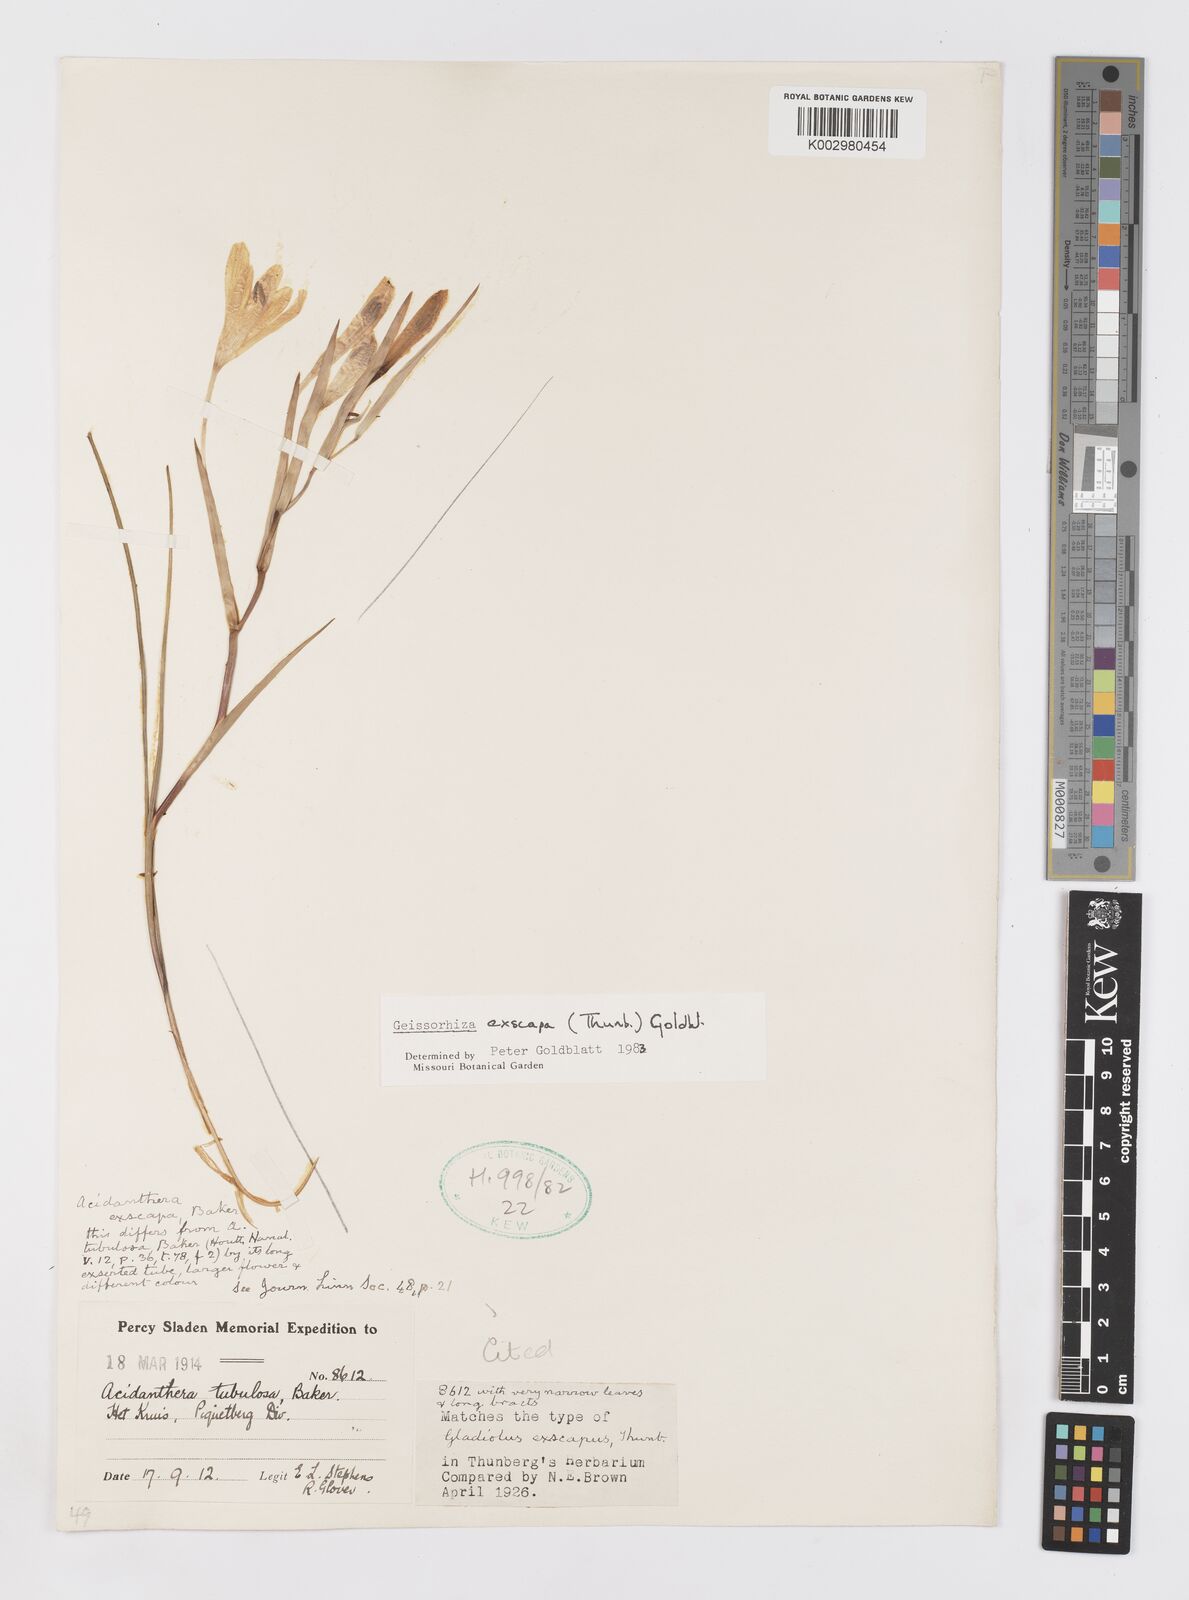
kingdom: Plantae
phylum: Tracheophyta
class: Liliopsida
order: Asparagales
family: Iridaceae
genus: Geissorhiza
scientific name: Geissorhiza exscapa
